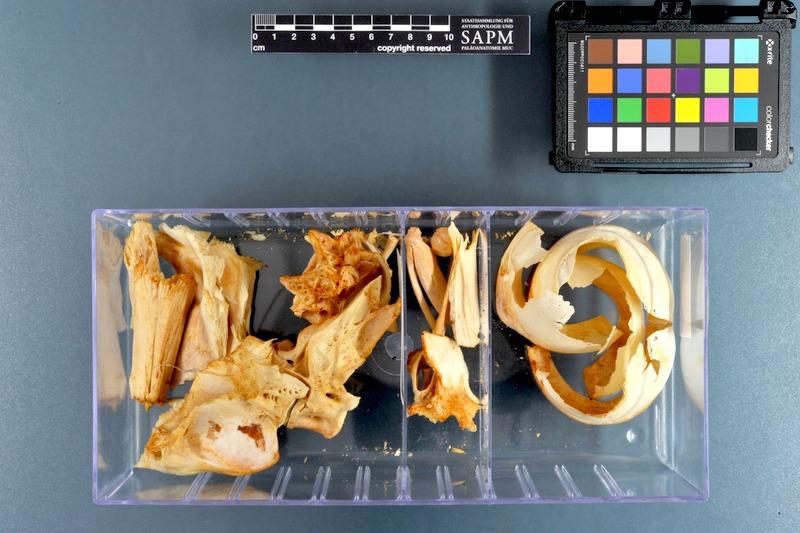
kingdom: Animalia
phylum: Chordata
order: Perciformes
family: Scombridae
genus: Thunnus
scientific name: Thunnus obesus
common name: Bigeye tuna
